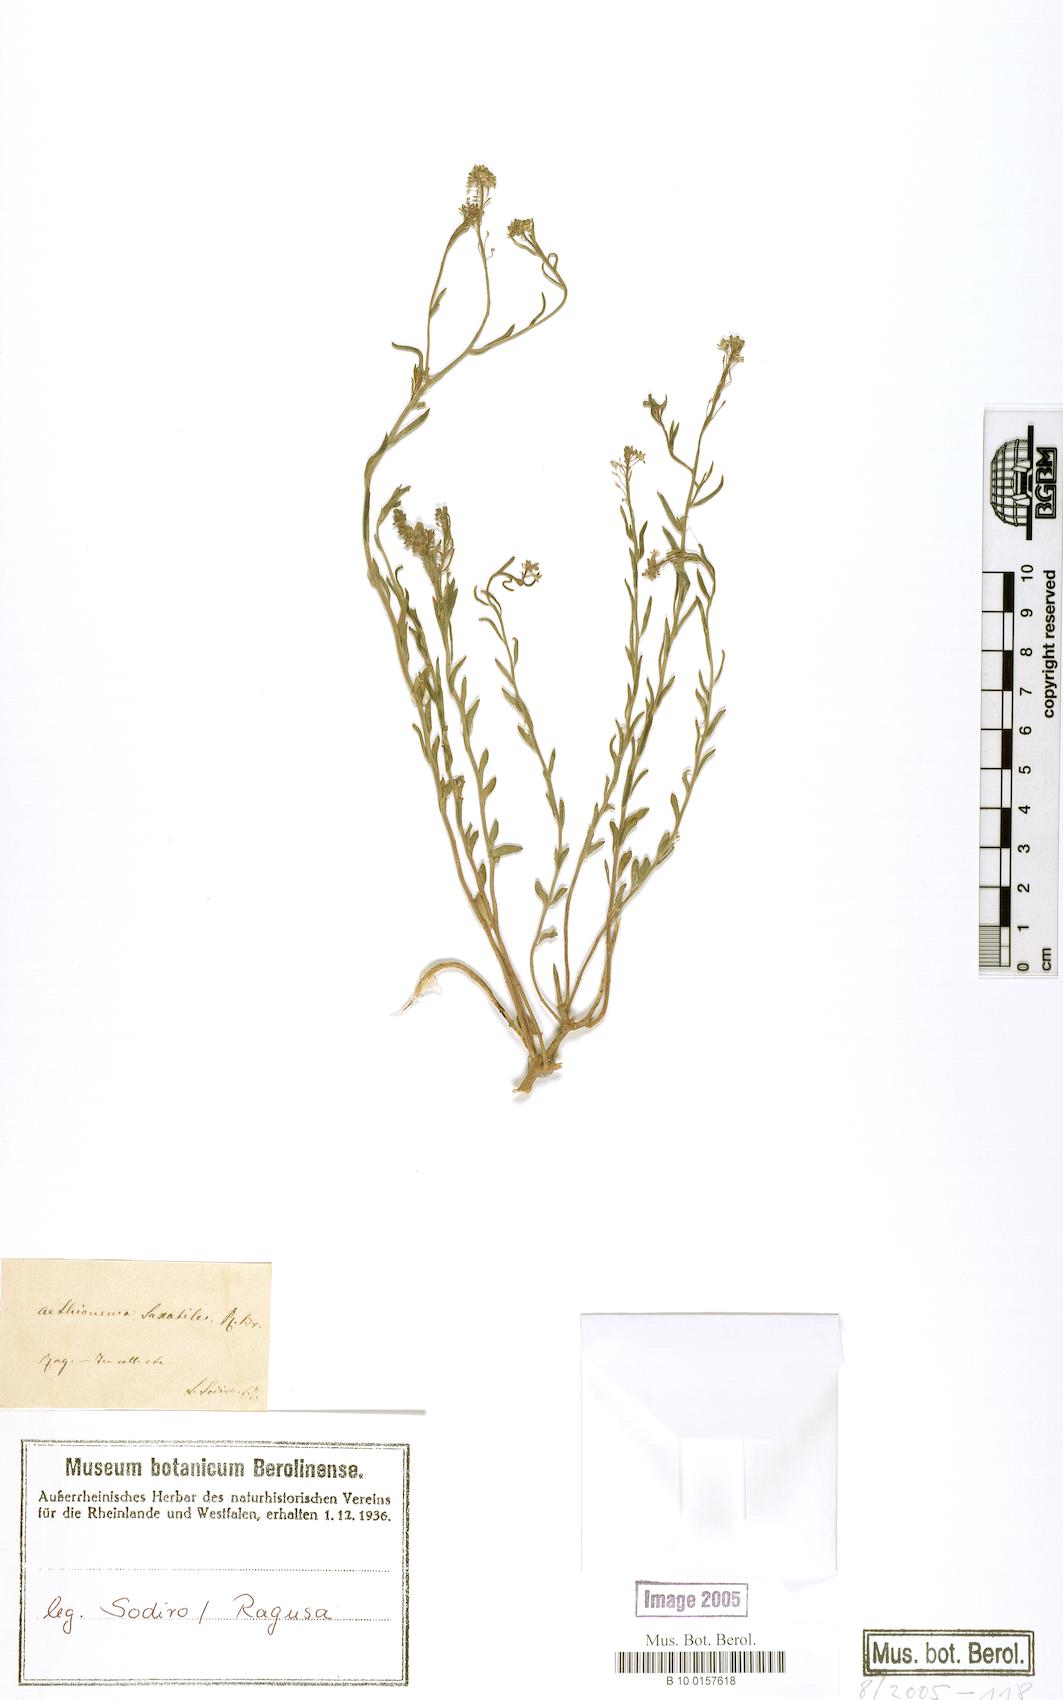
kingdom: Plantae
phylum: Tracheophyta
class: Magnoliopsida
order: Brassicales
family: Brassicaceae
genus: Aethionema
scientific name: Aethionema saxatile
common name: Burnt candytuft
